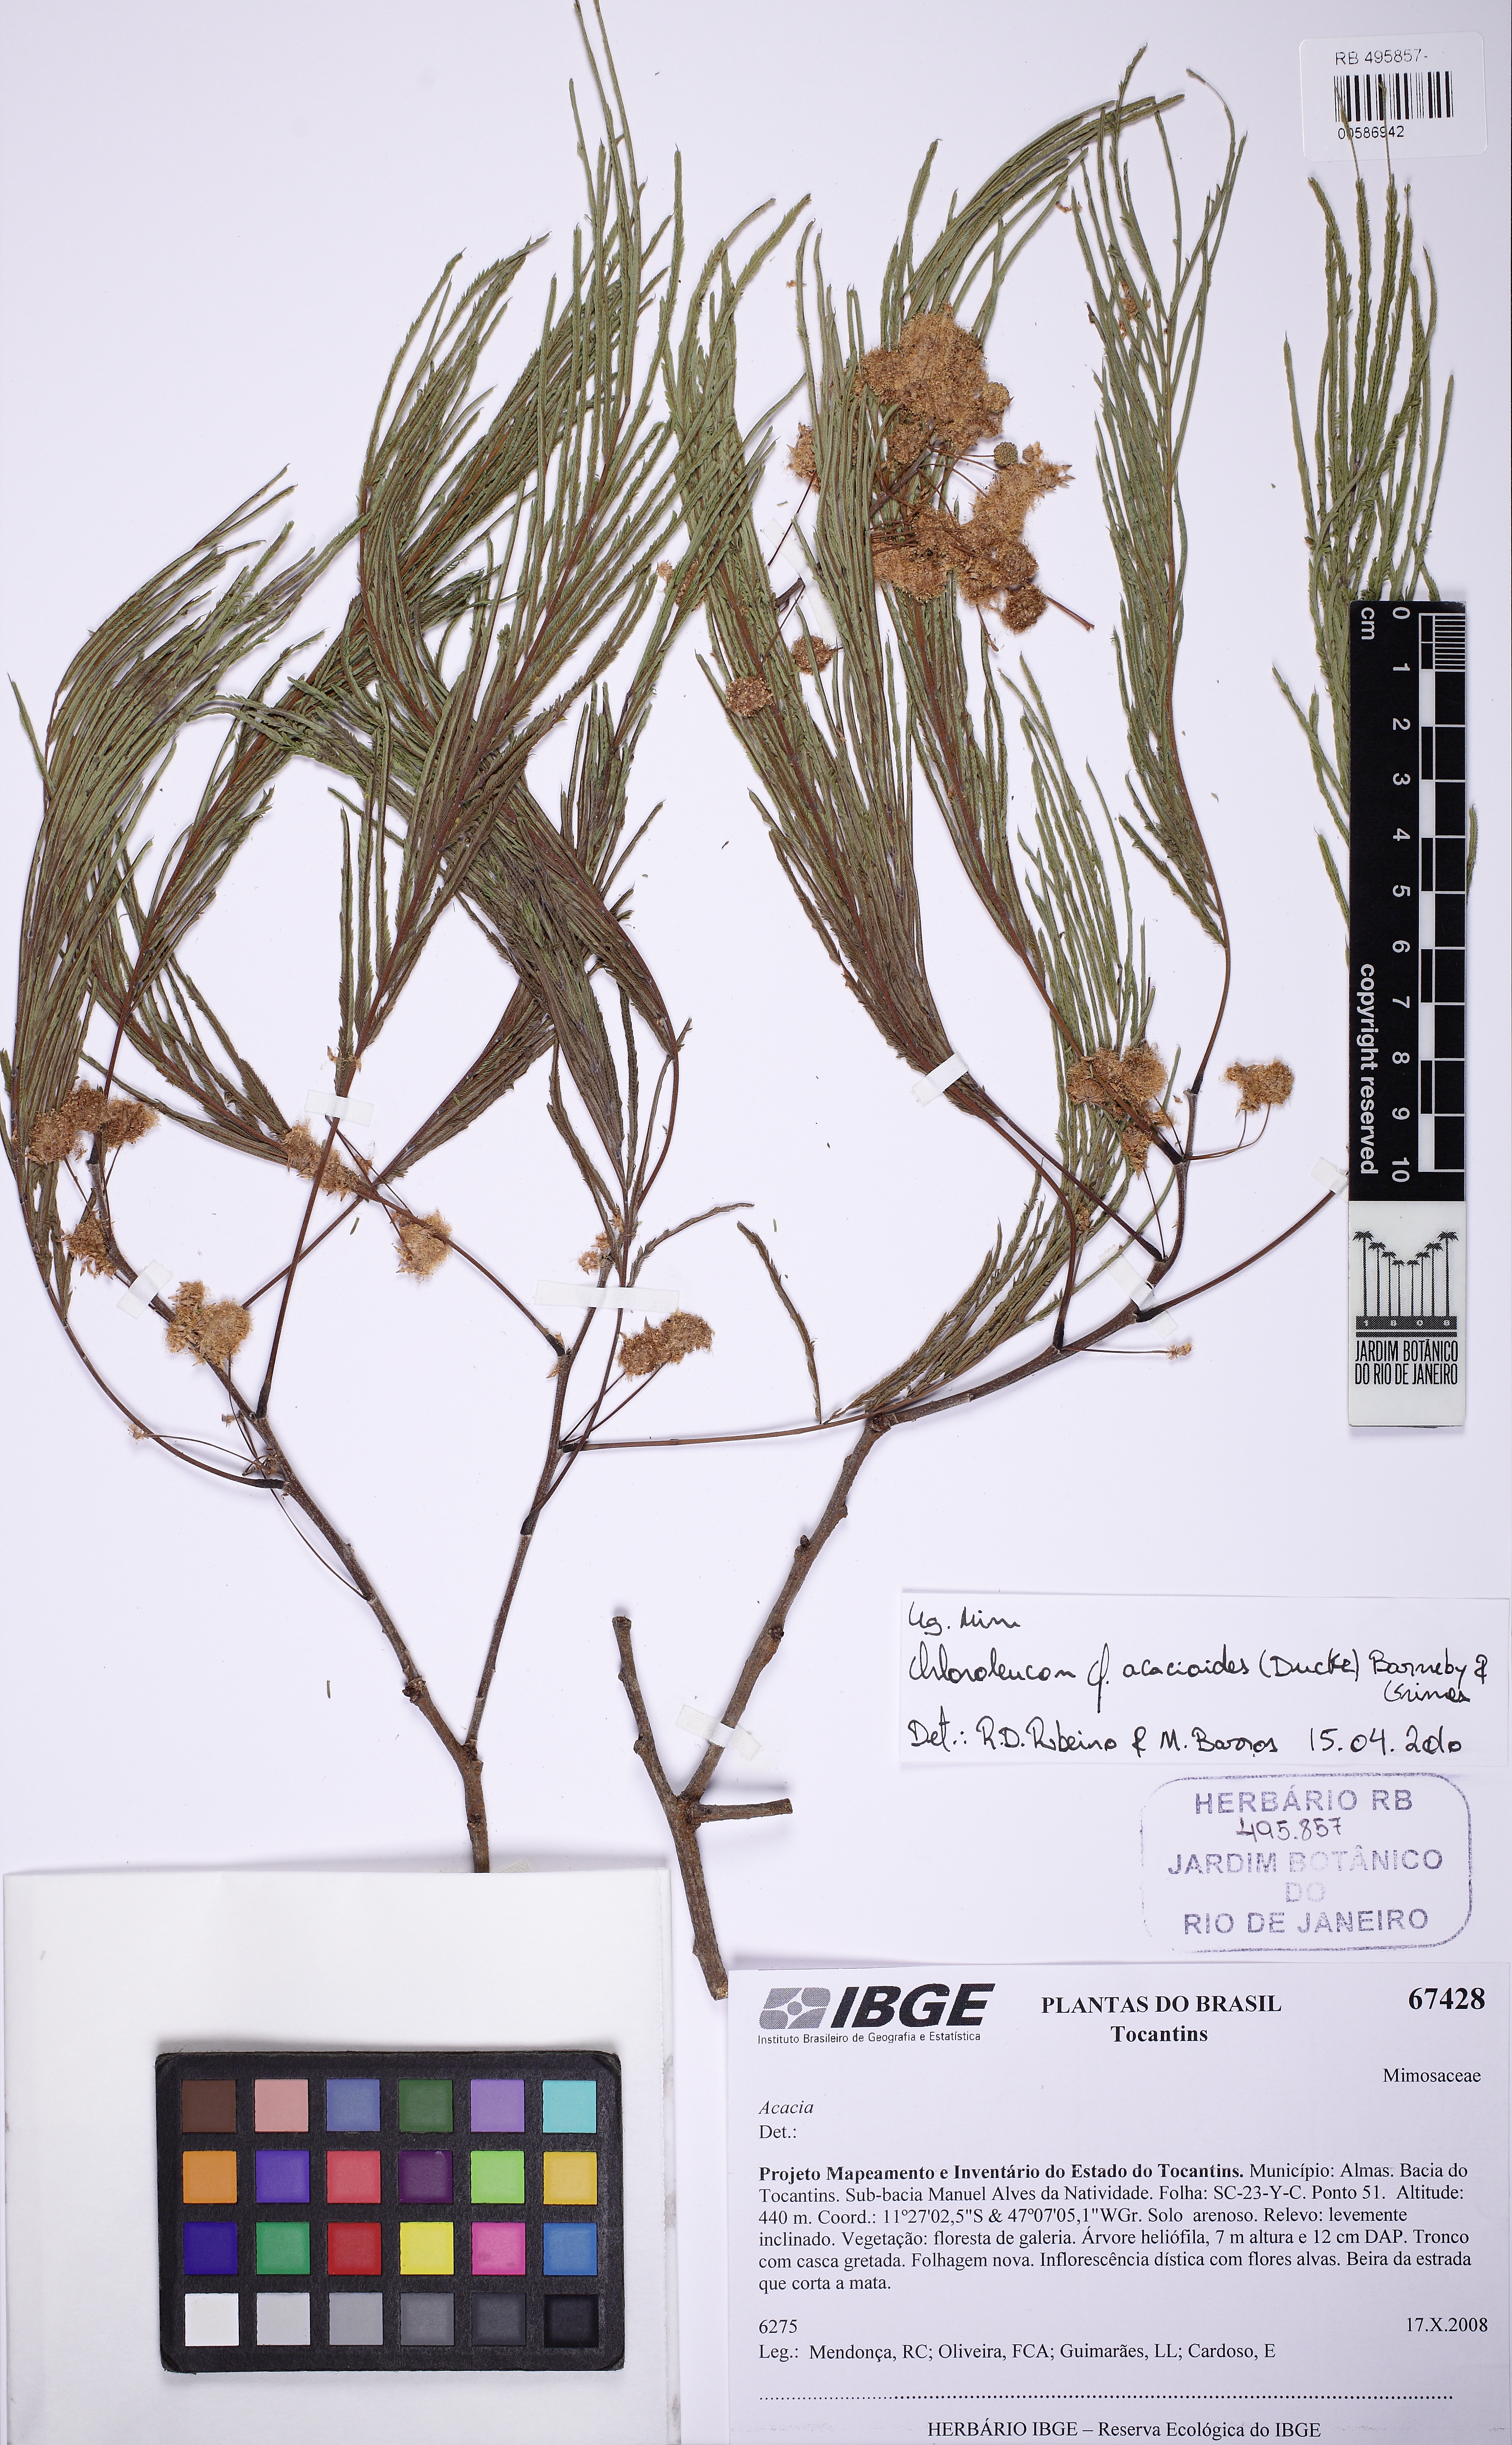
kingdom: Plantae
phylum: Tracheophyta
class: Magnoliopsida
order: Fabales
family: Fabaceae
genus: Chloroleucon
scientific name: Chloroleucon acacioides
